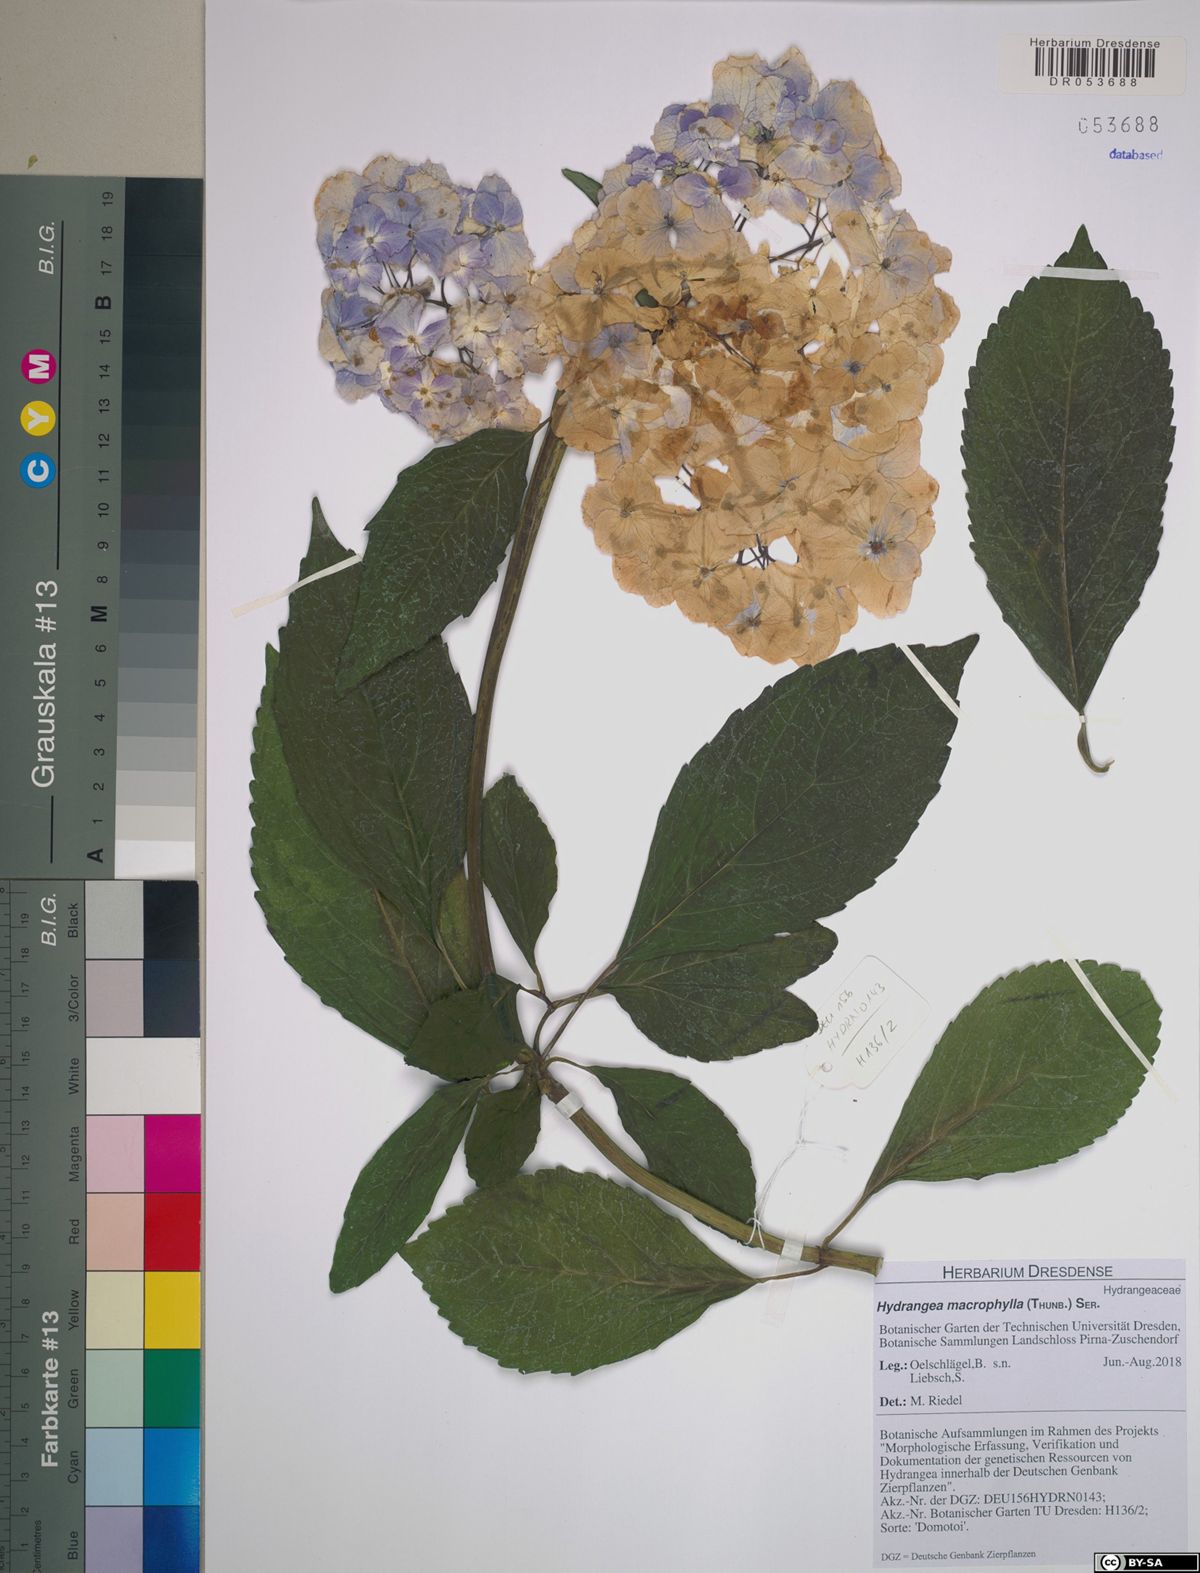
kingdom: Plantae
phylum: Tracheophyta
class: Magnoliopsida
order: Cornales
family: Hydrangeaceae
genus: Hydrangea
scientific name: Hydrangea macrophylla
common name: Hydrangea
